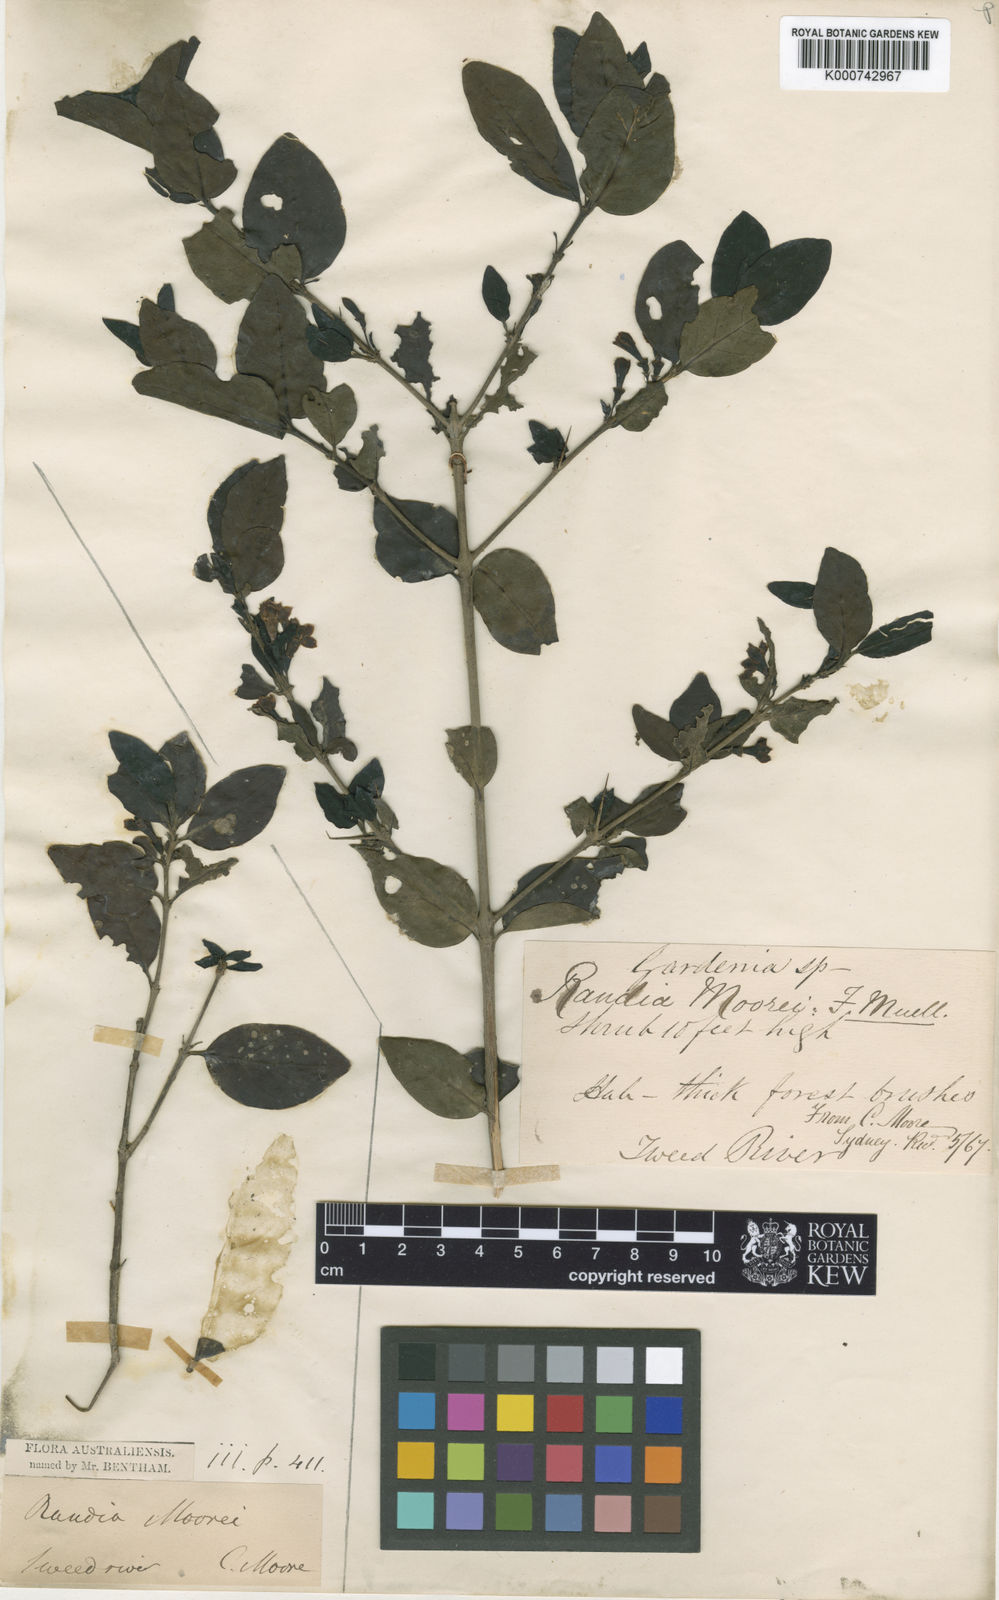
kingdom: Plantae
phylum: Tracheophyta
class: Magnoliopsida
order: Gentianales
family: Rubiaceae
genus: Randia
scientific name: Randia moorei
